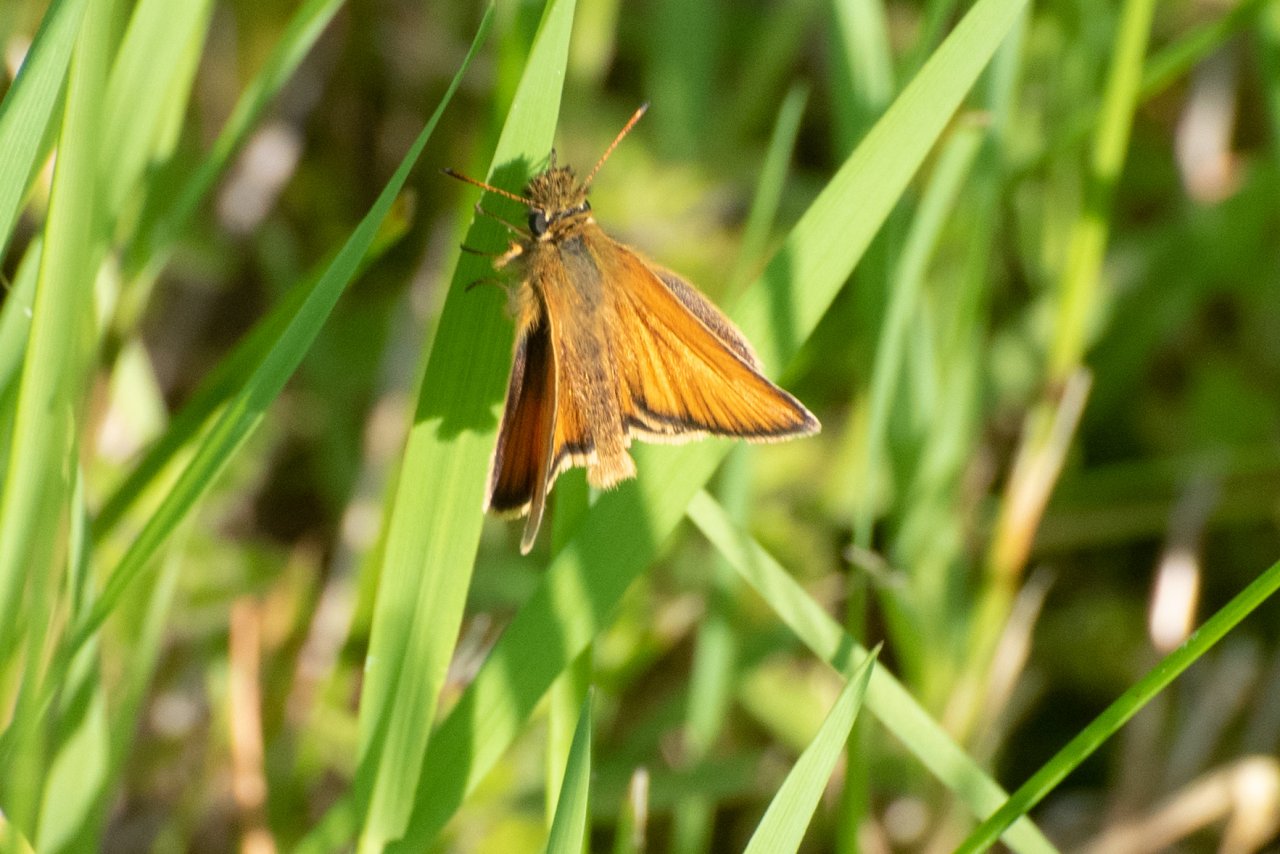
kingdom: Animalia
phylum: Arthropoda
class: Insecta
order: Lepidoptera
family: Hesperiidae
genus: Thymelicus
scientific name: Thymelicus lineola
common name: European Skipper
